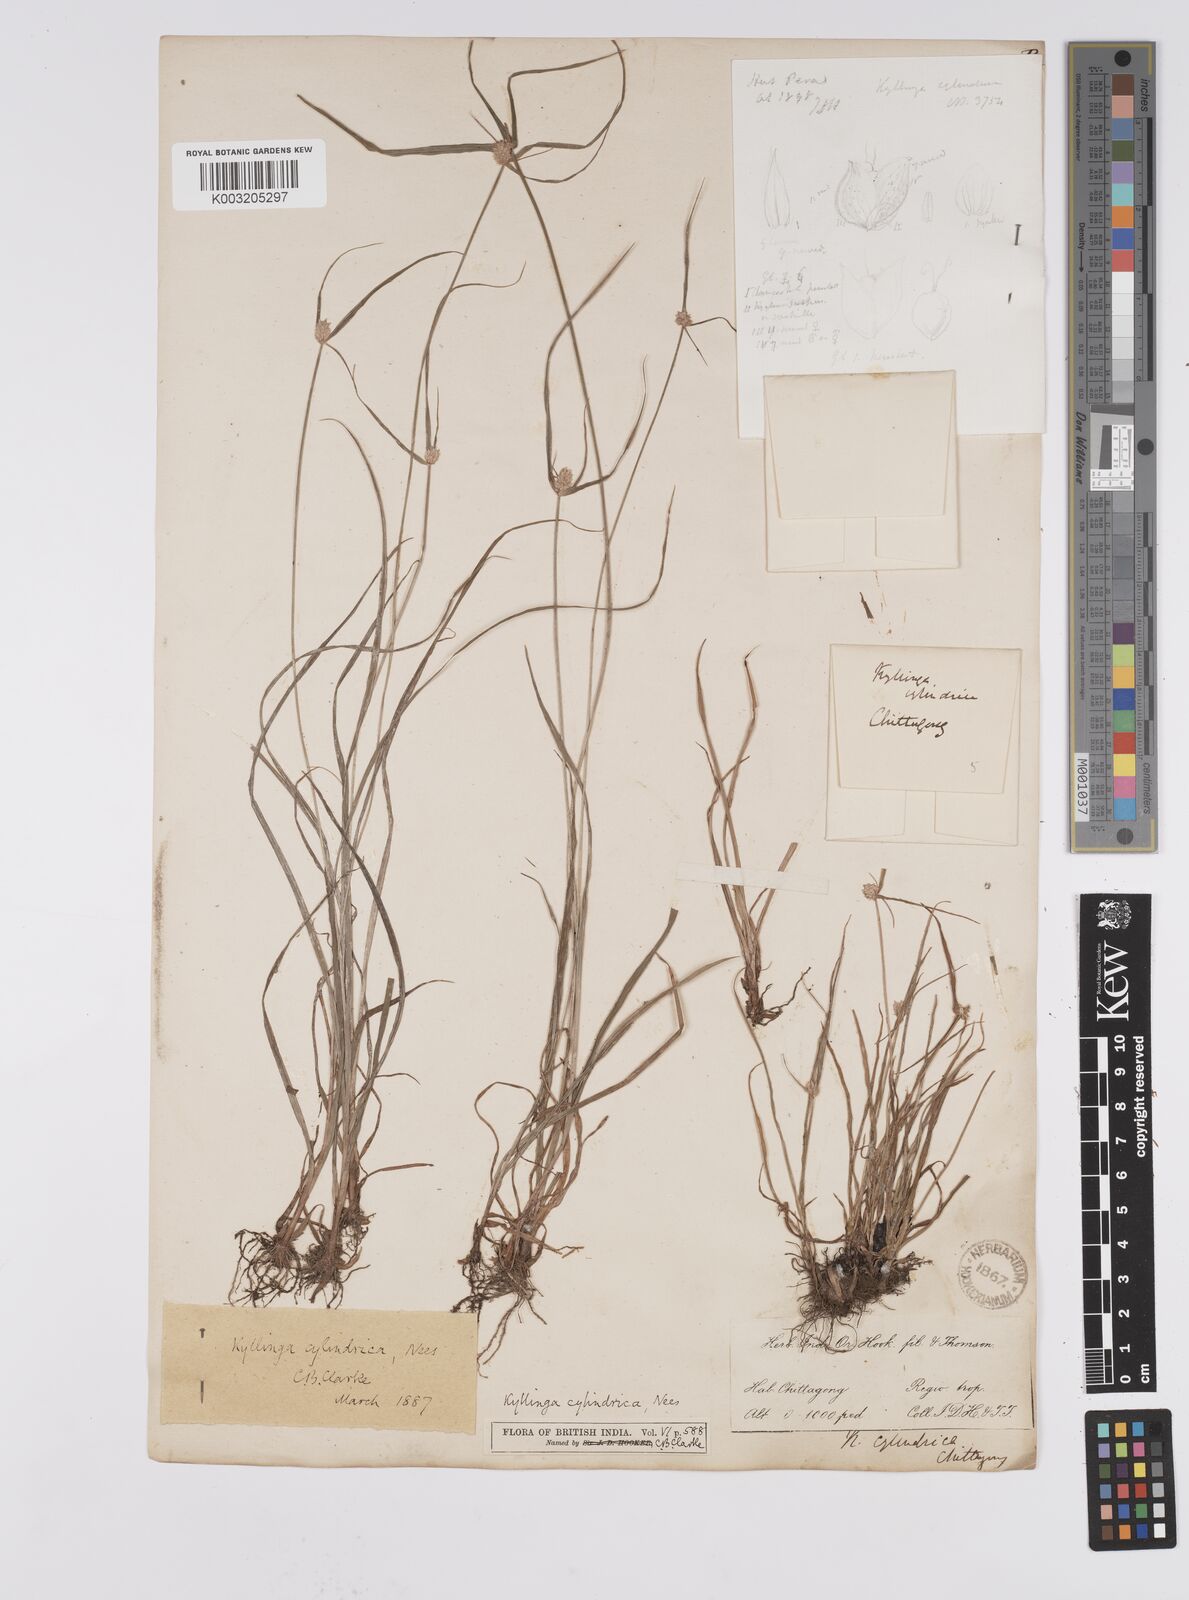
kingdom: Plantae
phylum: Tracheophyta
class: Liliopsida
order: Poales
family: Cyperaceae
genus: Cyperus
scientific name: Cyperus
